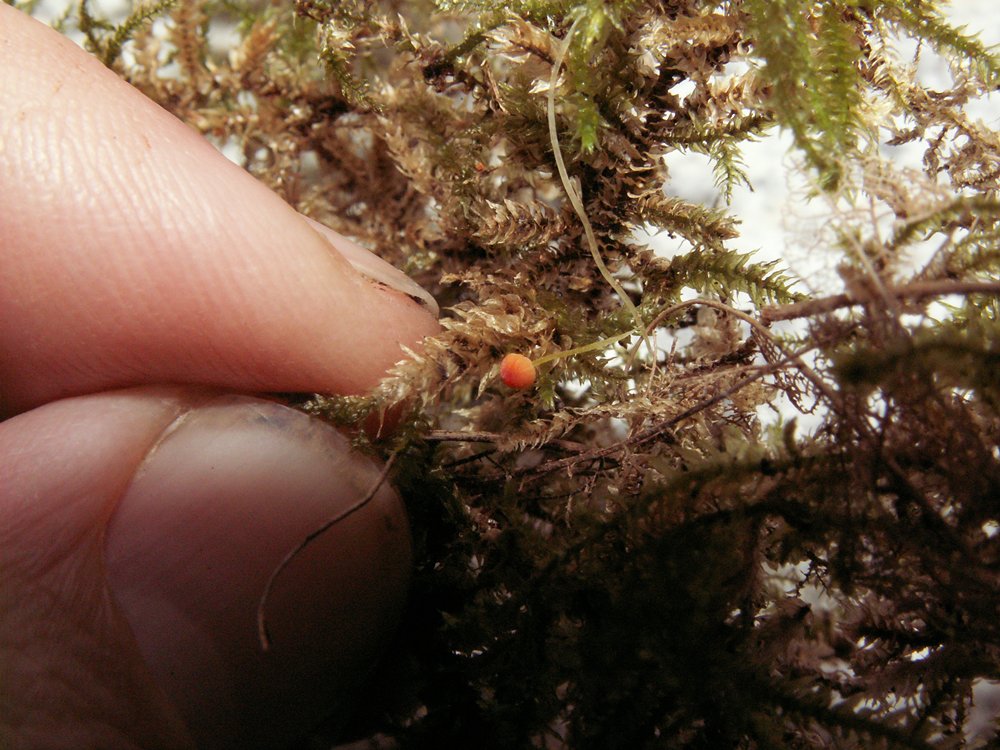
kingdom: Fungi
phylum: Basidiomycota
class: Agaricomycetes
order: Agaricales
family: Mycenaceae
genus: Mycena
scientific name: Mycena acicula
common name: orange huesvamp
